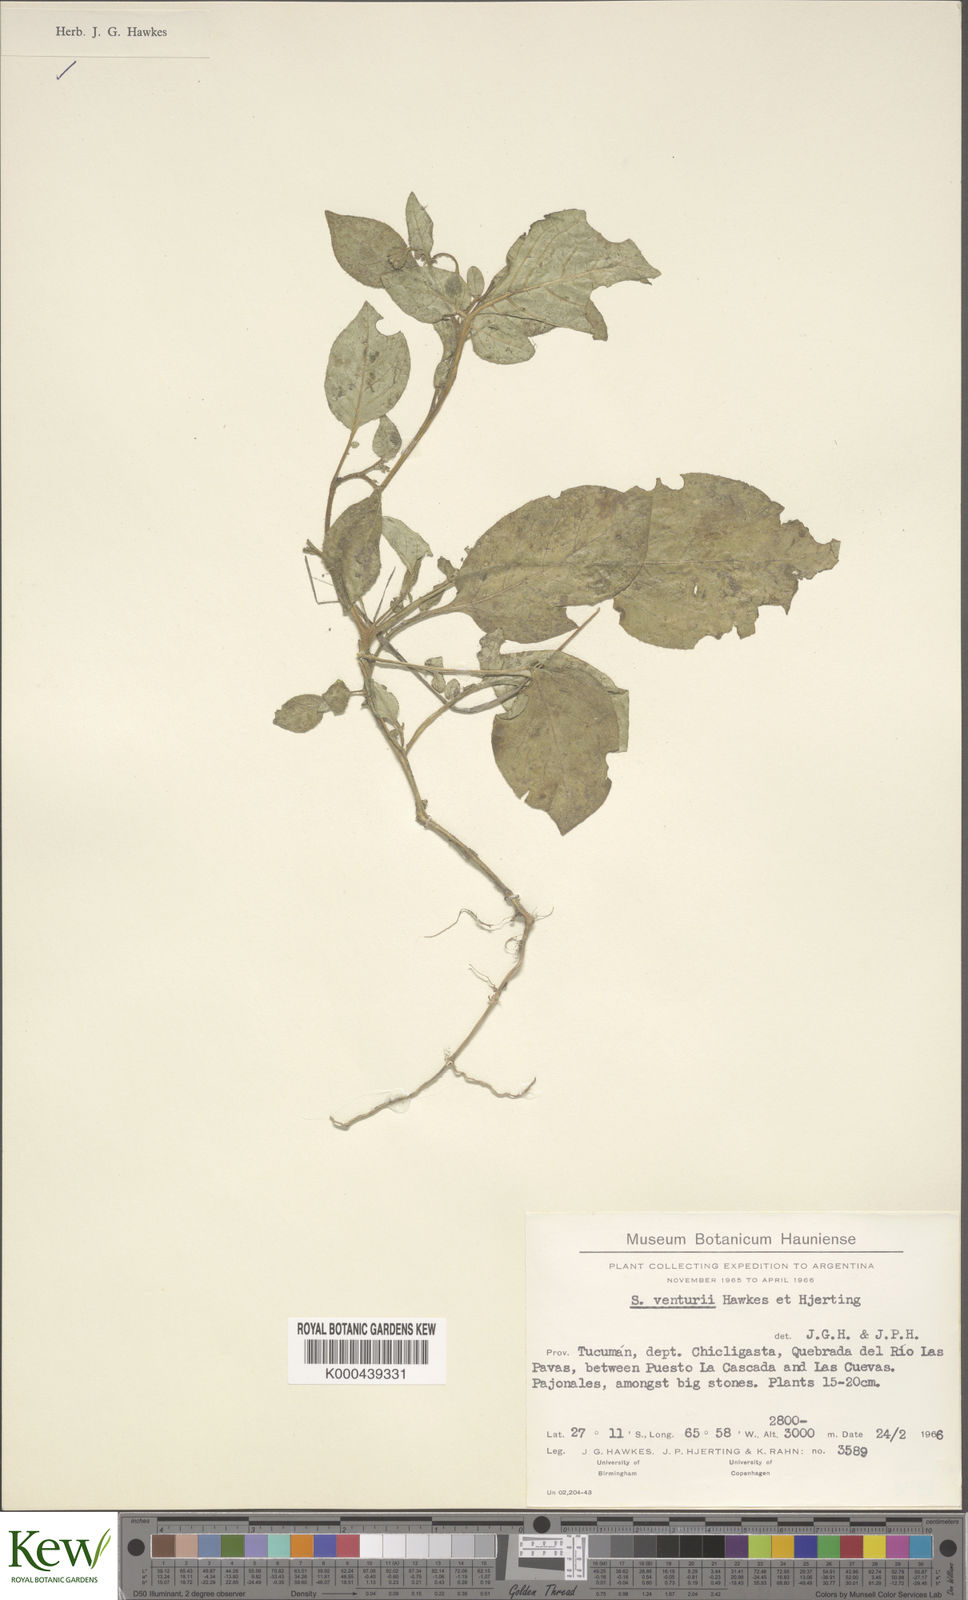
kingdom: Plantae
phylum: Tracheophyta
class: Magnoliopsida
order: Solanales
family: Solanaceae
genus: Solanum
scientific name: Solanum venturii
